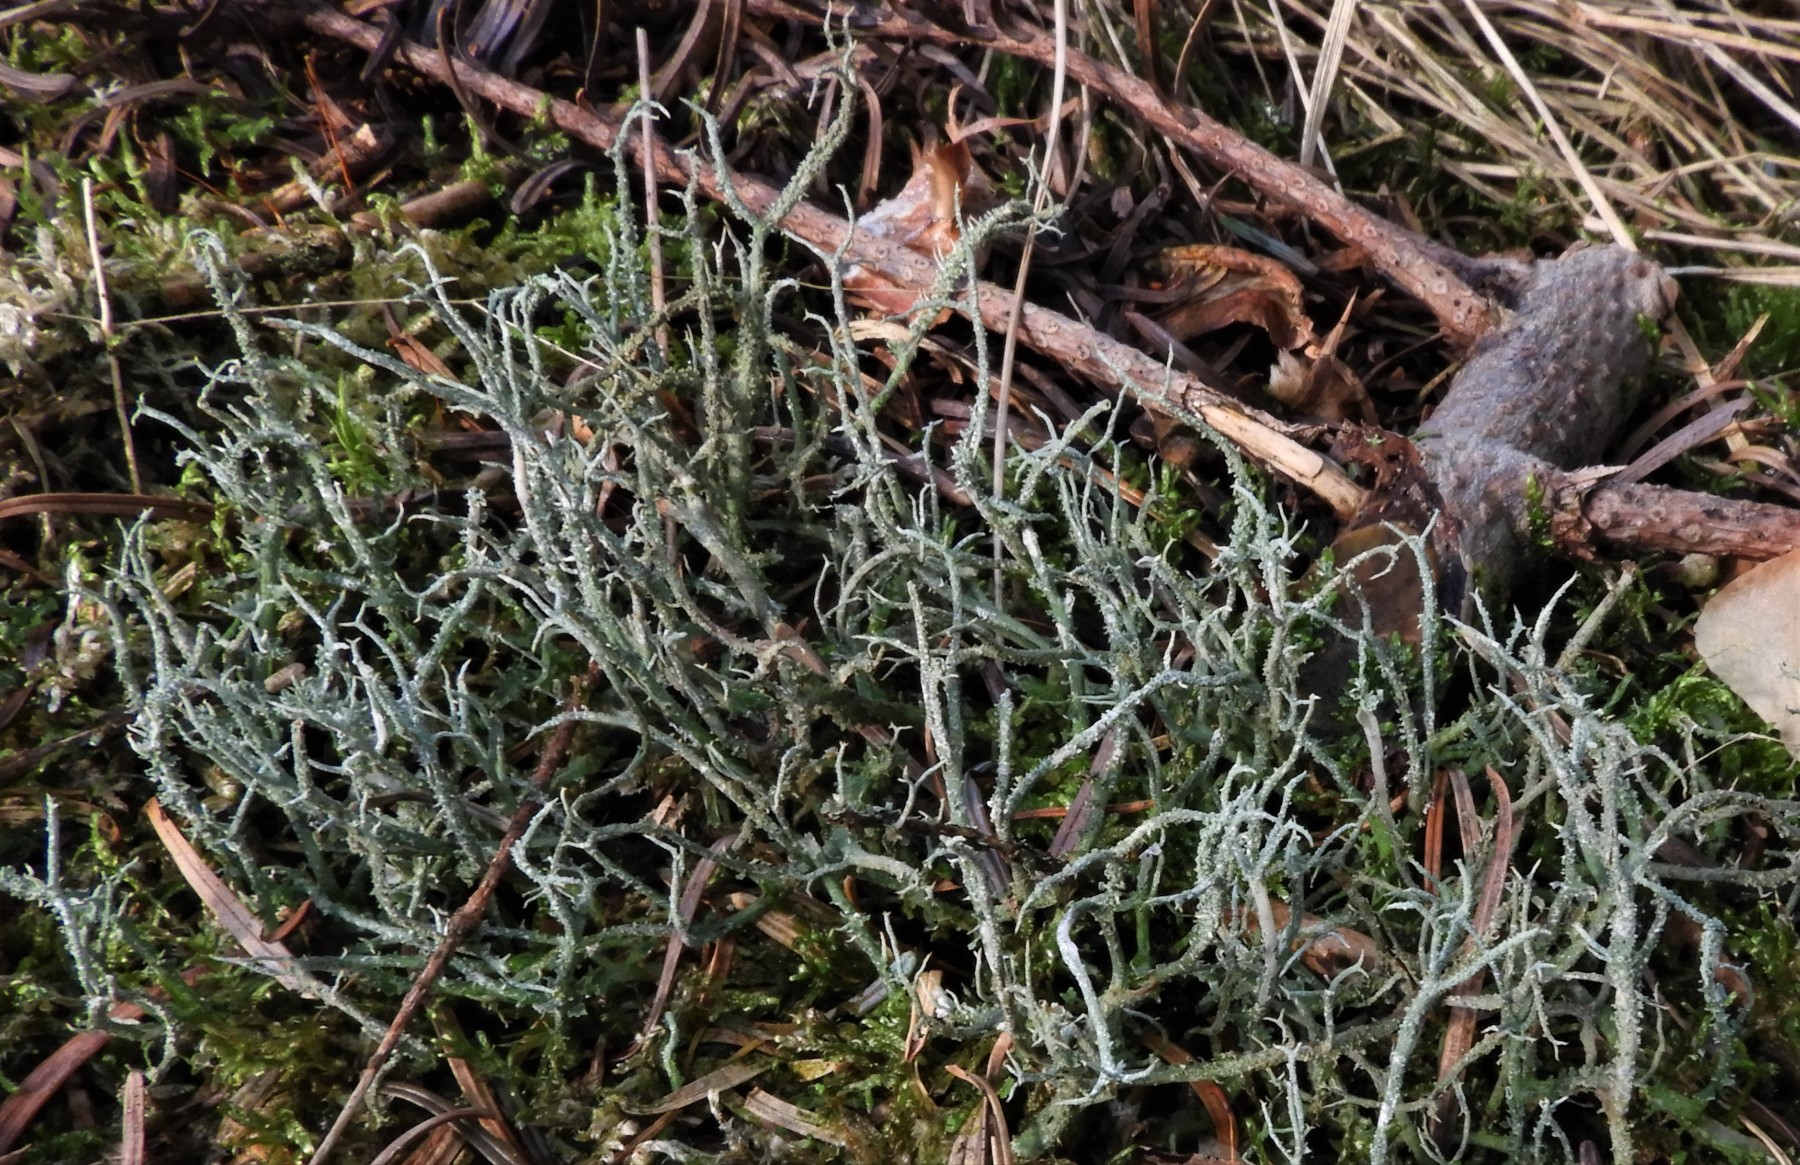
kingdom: Fungi
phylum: Ascomycota
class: Lecanoromycetes
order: Lecanorales
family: Cladoniaceae
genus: Cladonia
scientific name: Cladonia scabriuscula
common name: ru bægerlav
